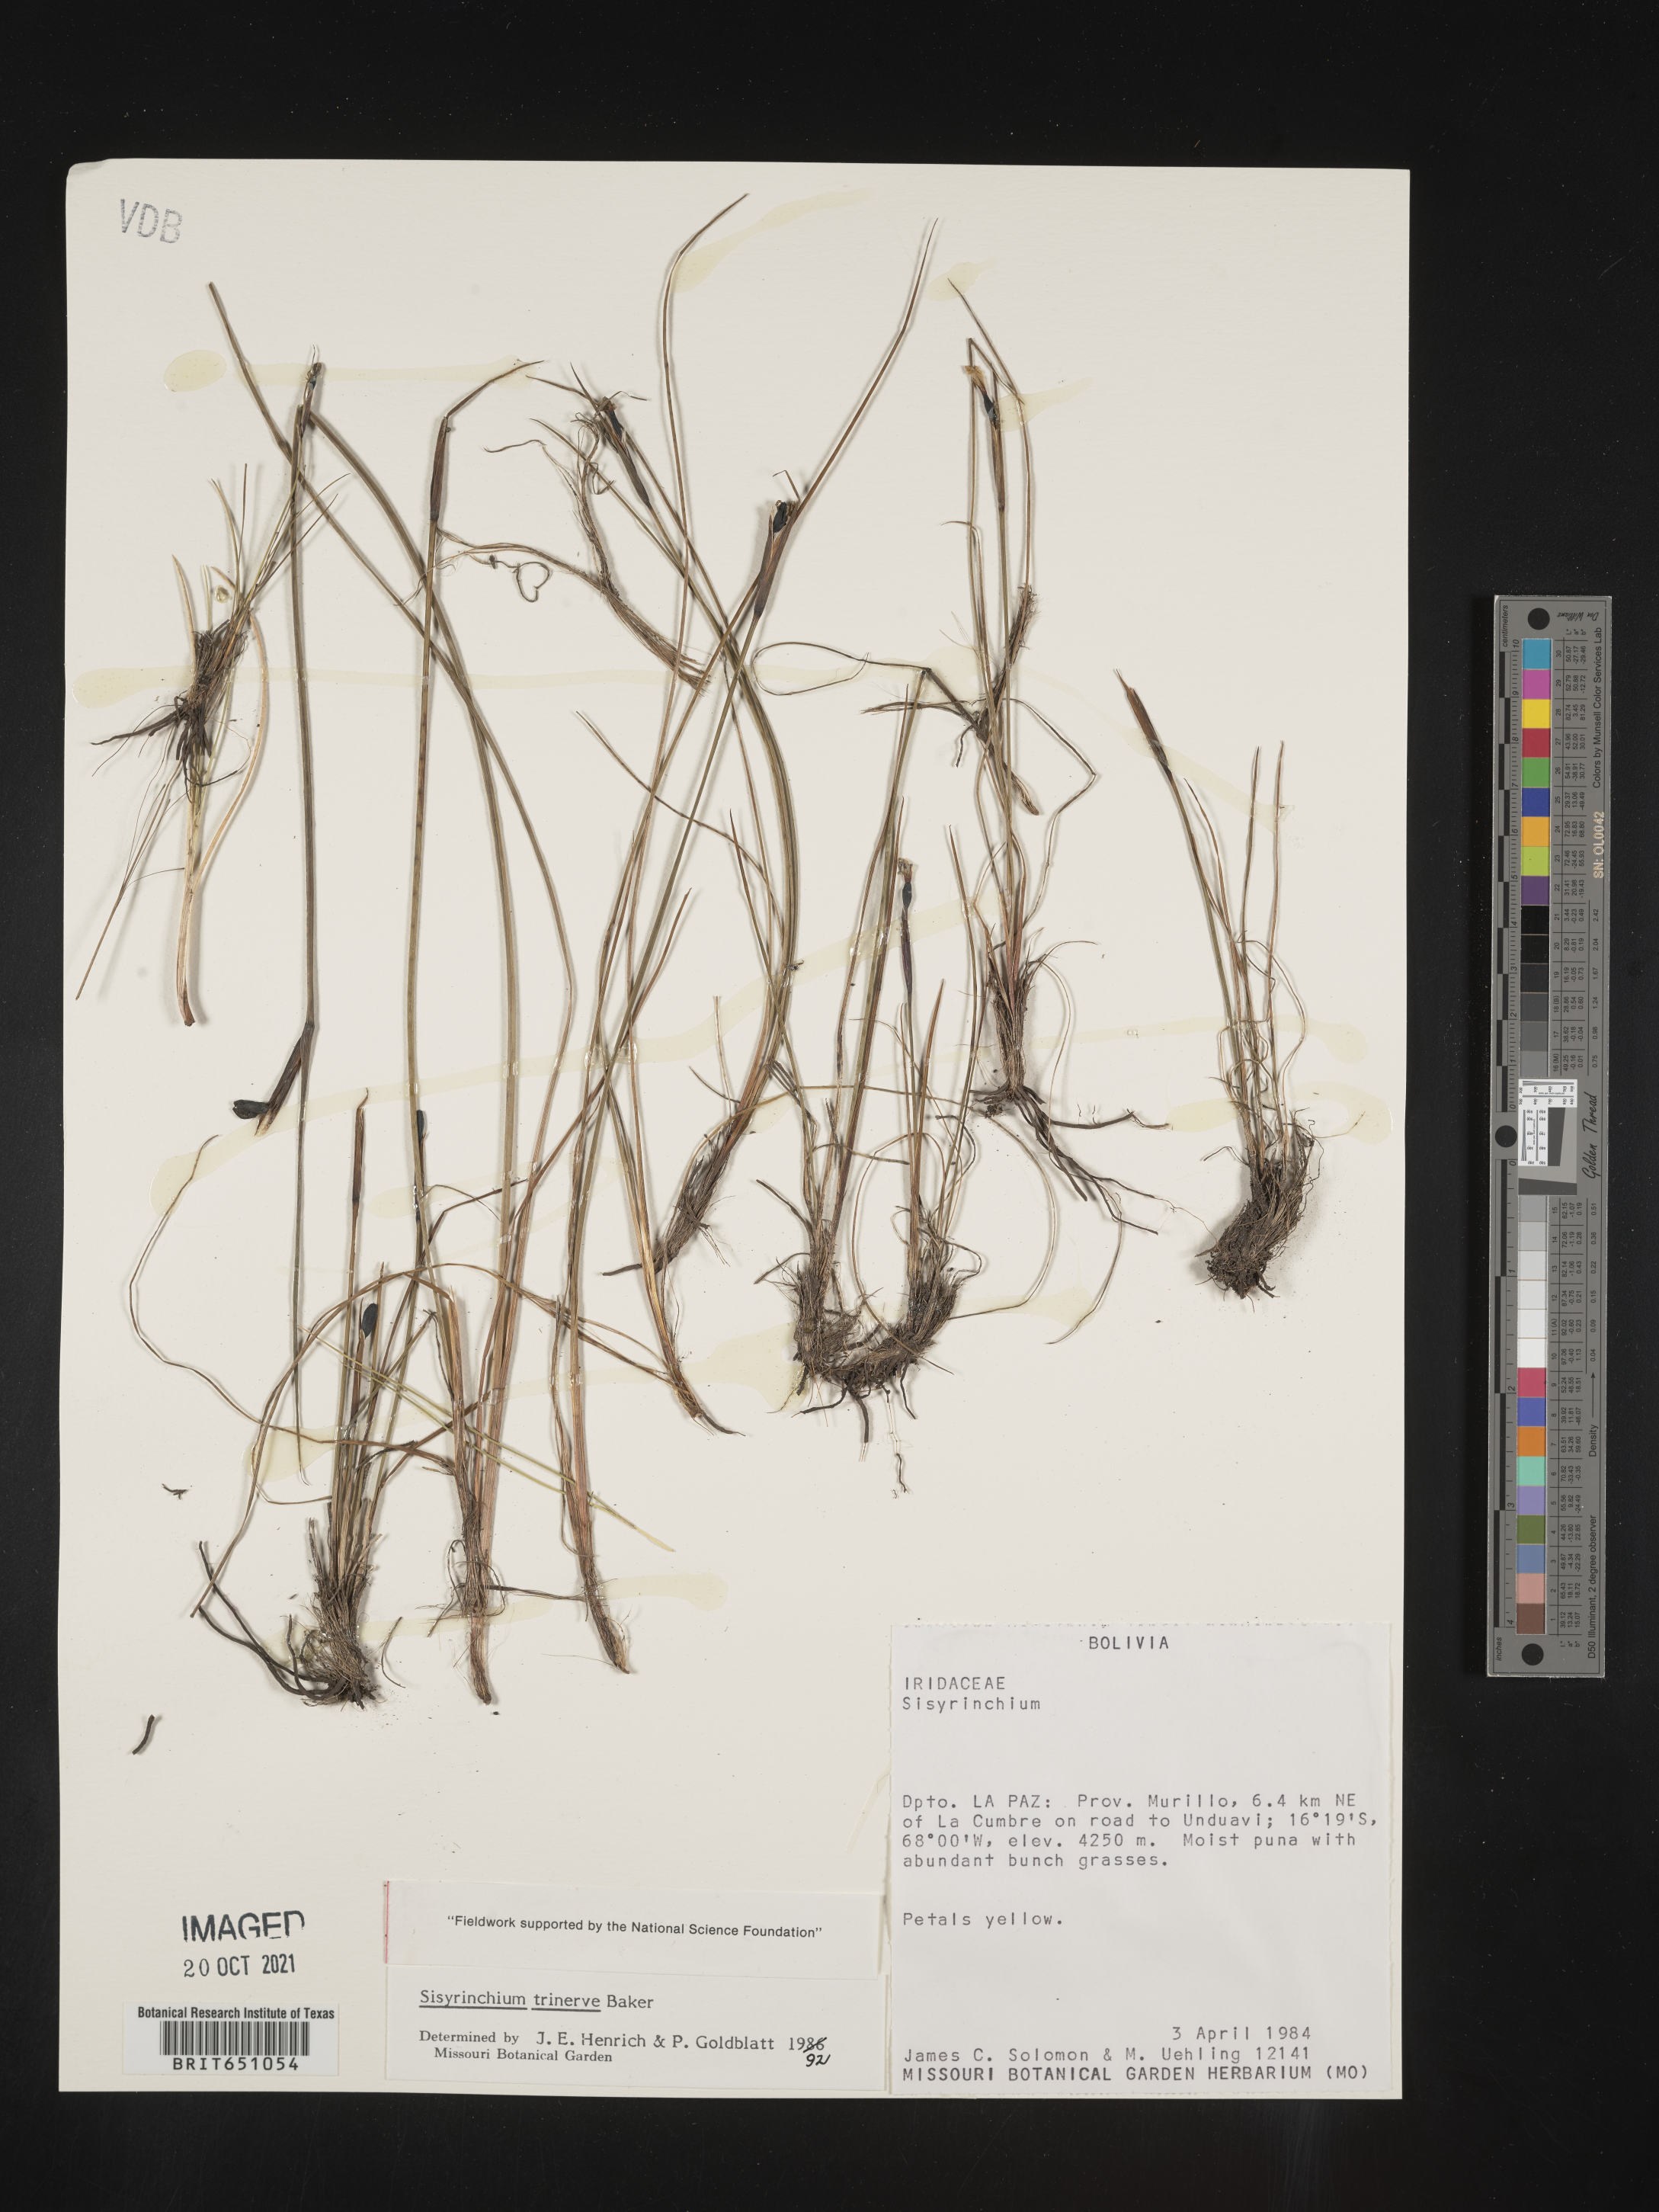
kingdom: Plantae
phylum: Tracheophyta
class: Liliopsida
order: Asparagales
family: Iridaceae
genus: Sisyrinchium
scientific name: Sisyrinchium
